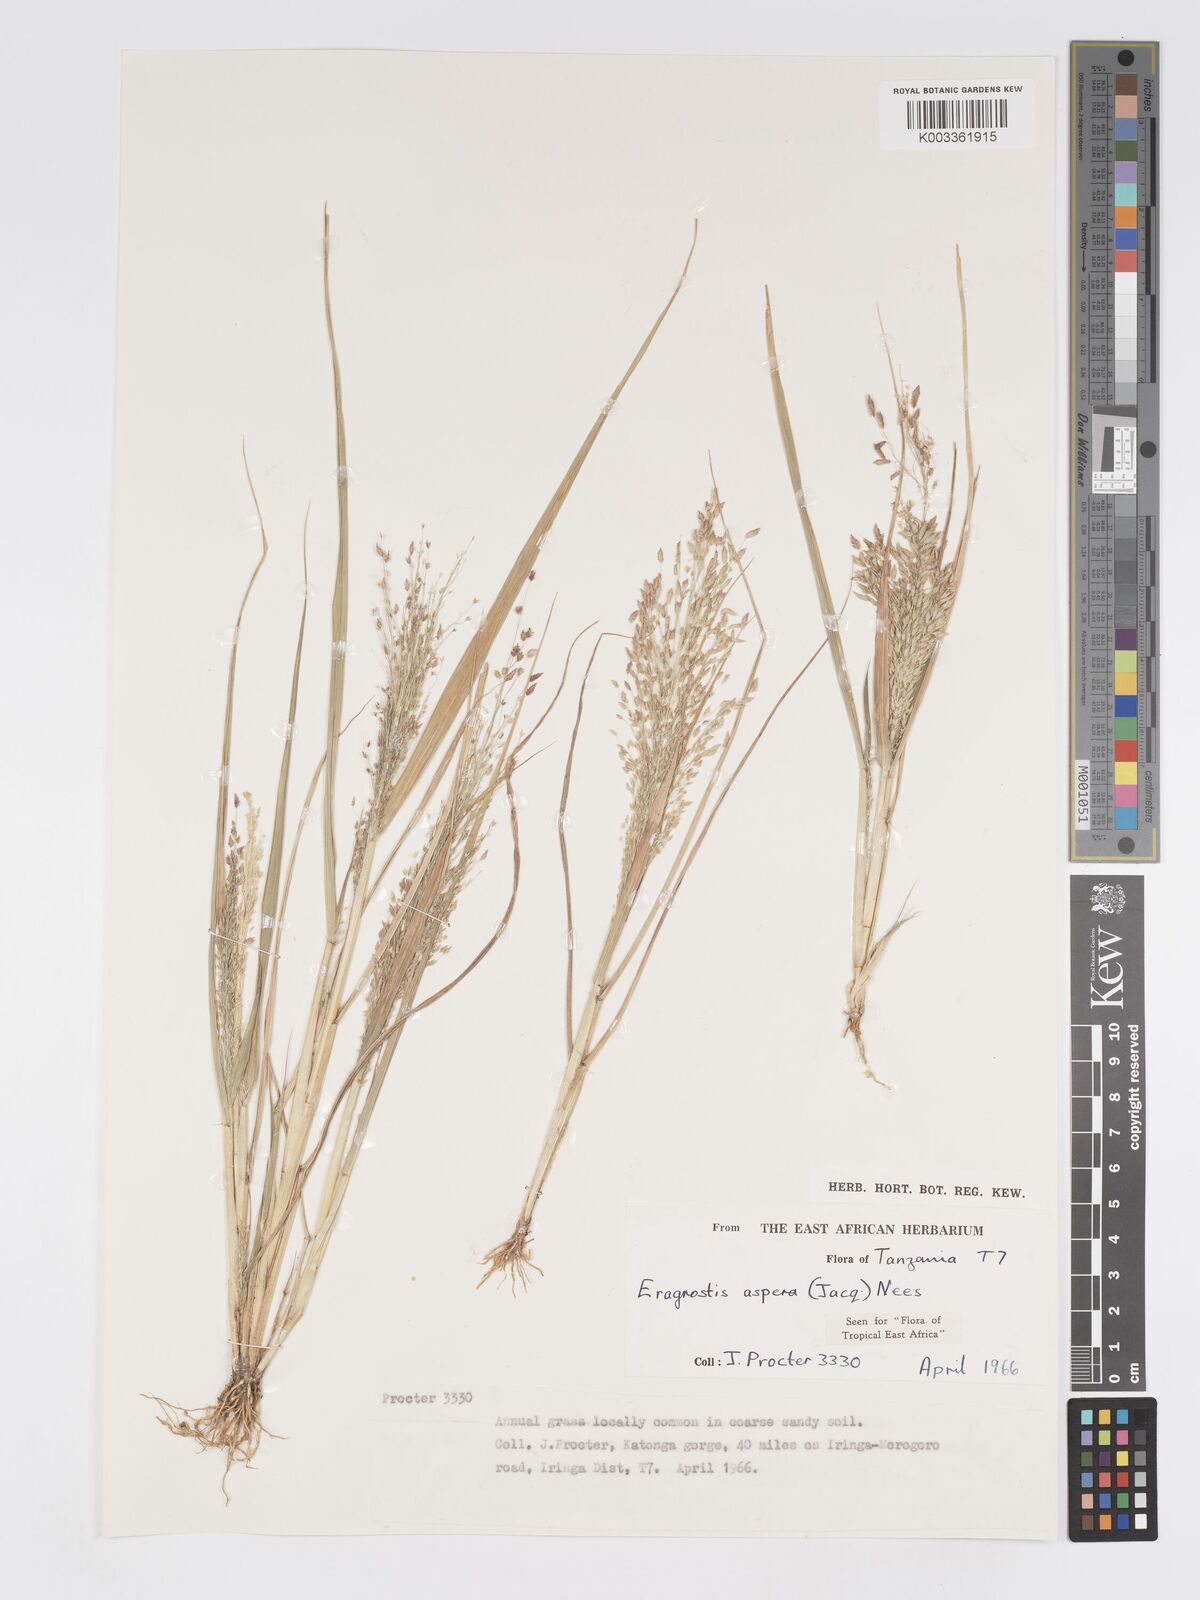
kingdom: Plantae
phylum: Tracheophyta
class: Liliopsida
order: Poales
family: Poaceae
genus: Eragrostis
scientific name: Eragrostis aspera
